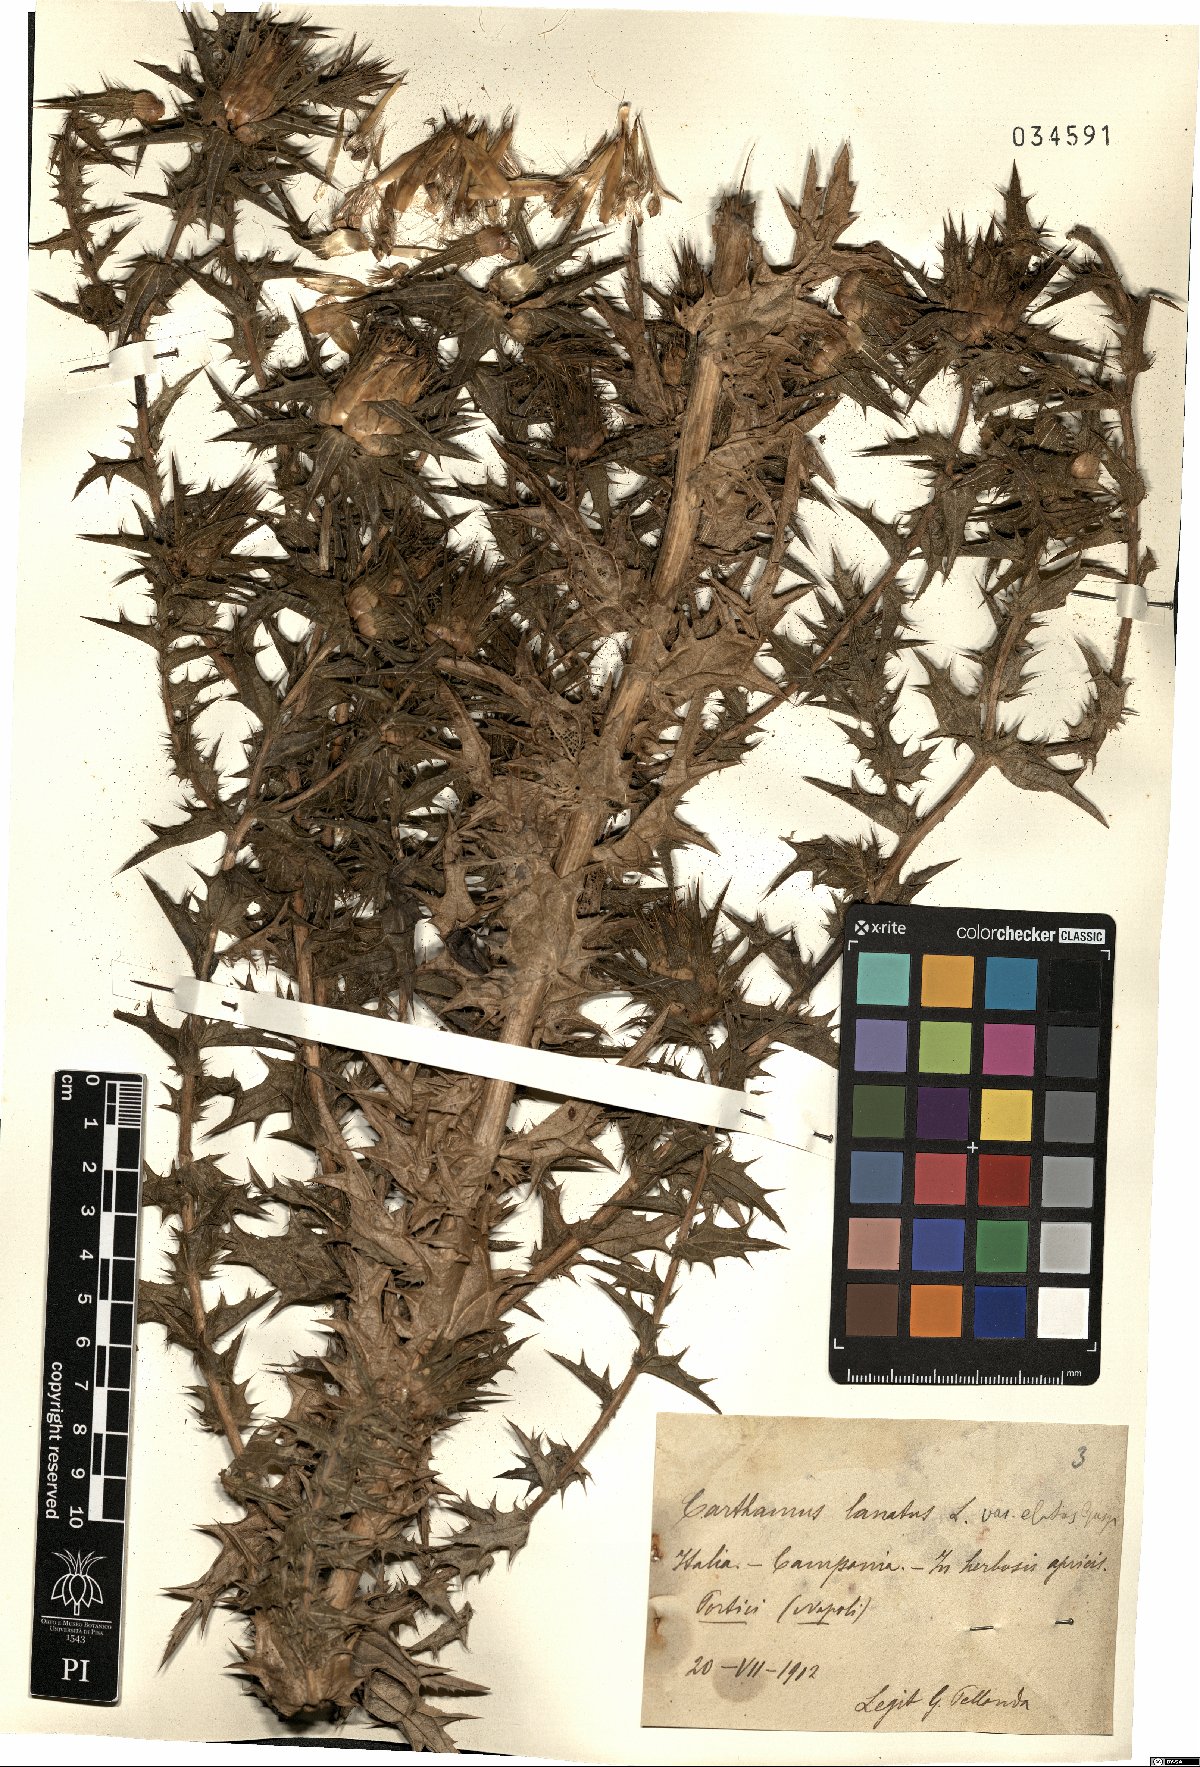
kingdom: Plantae
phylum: Tracheophyta
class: Magnoliopsida
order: Asterales
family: Asteraceae
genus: Carthamus
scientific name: Carthamus lanatus
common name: Downy safflower
